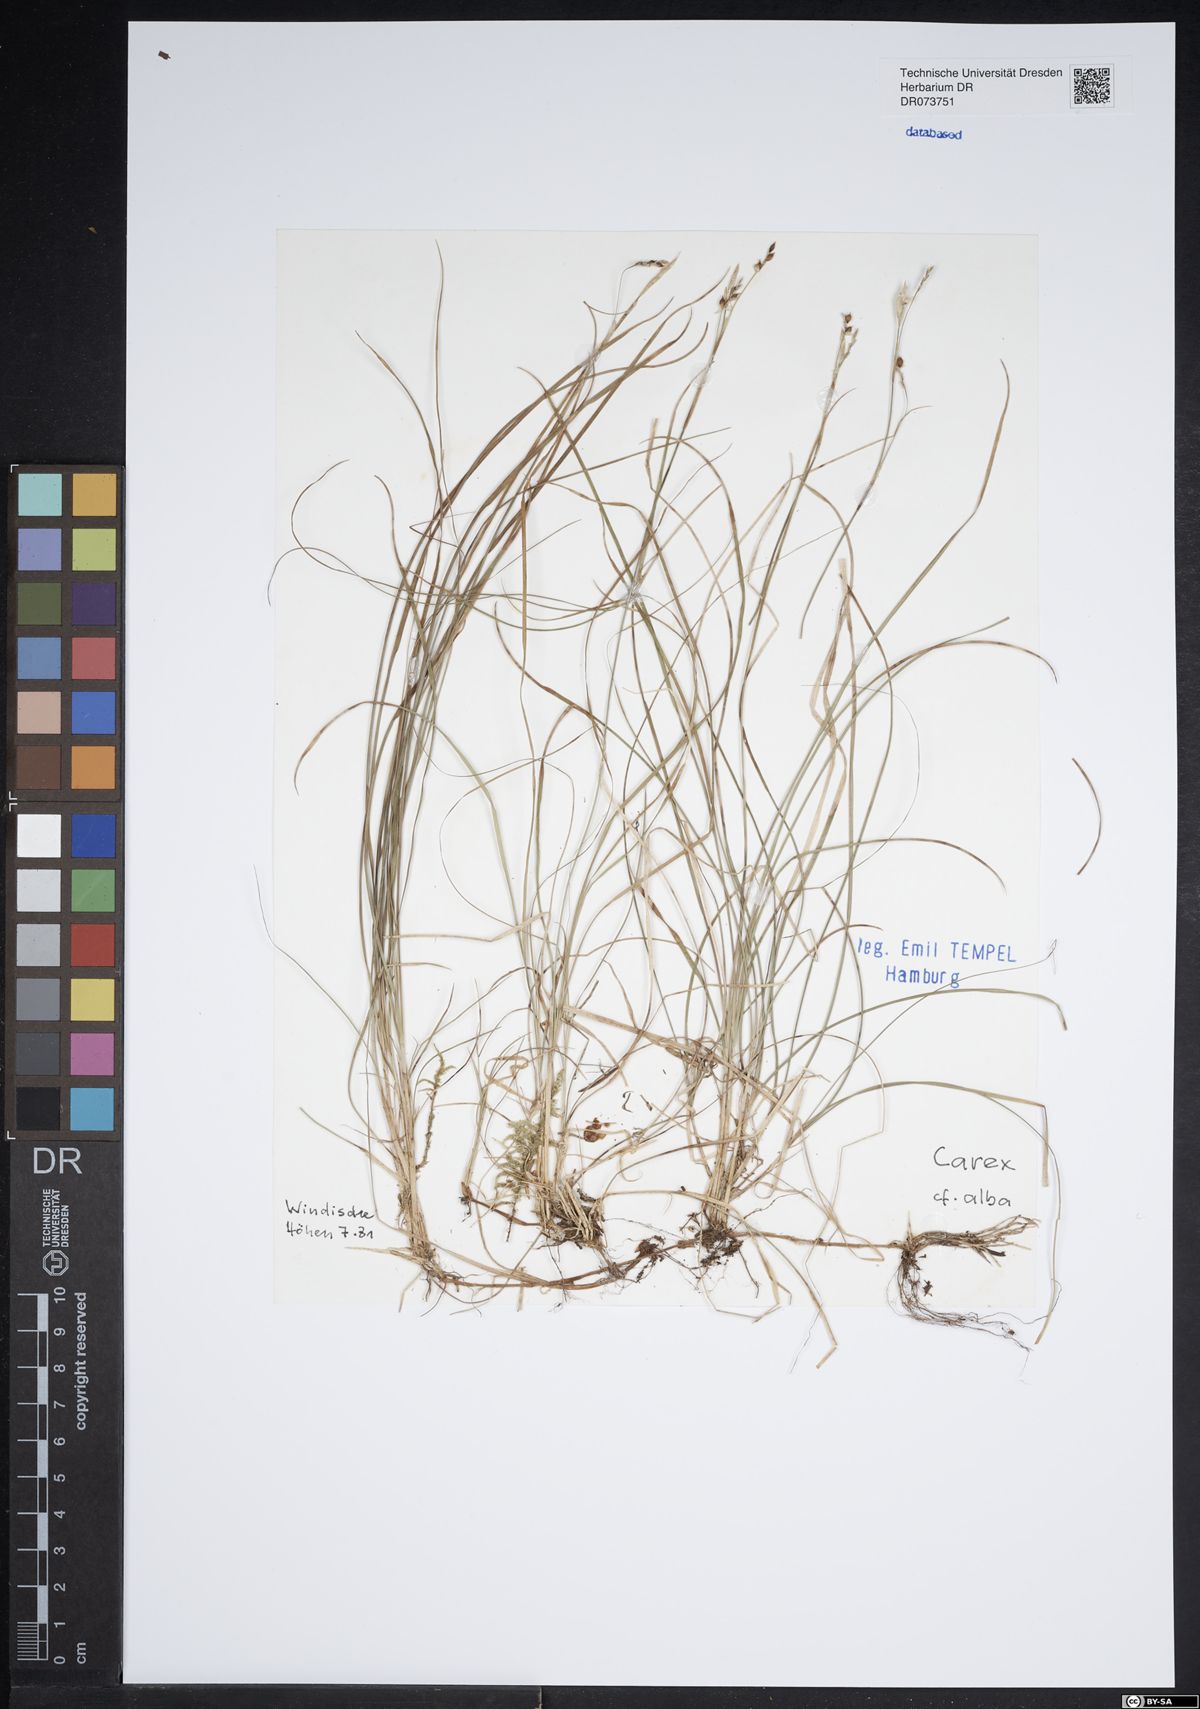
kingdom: Plantae
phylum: Tracheophyta
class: Liliopsida
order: Poales
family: Cyperaceae
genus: Carex
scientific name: Carex alba
